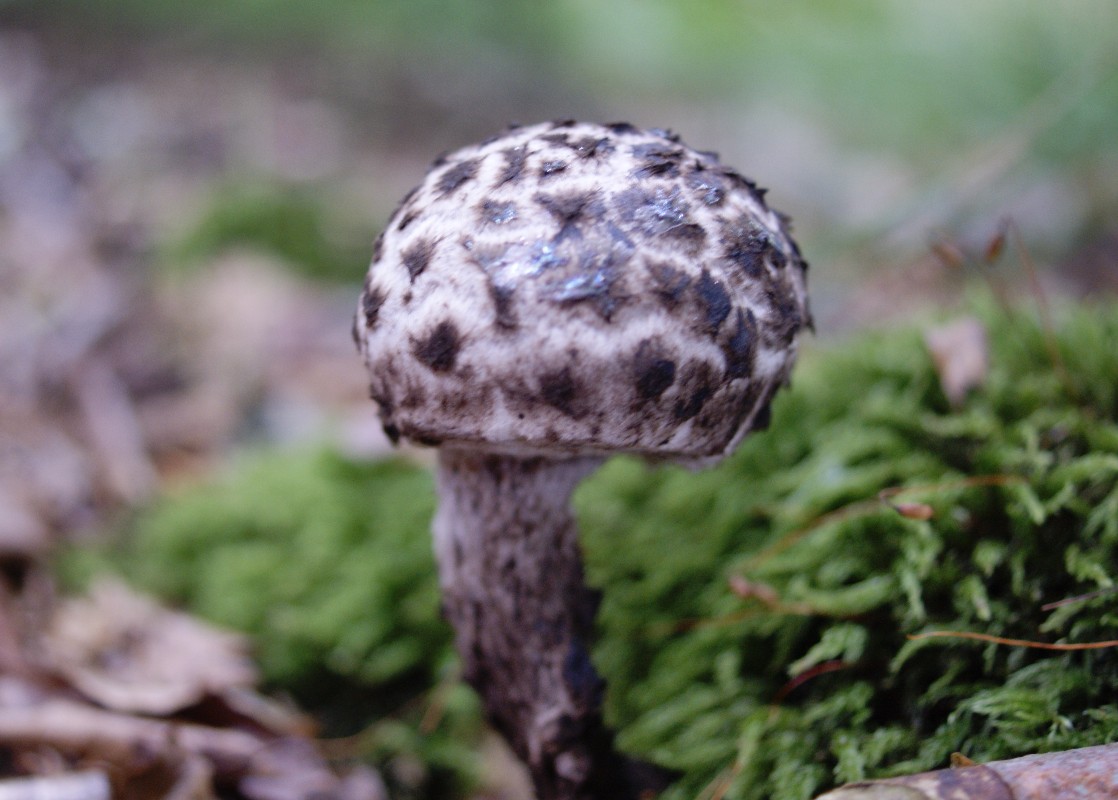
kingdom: Fungi
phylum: Basidiomycota
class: Agaricomycetes
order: Boletales
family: Boletaceae
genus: Strobilomyces
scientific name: Strobilomyces strobilaceus
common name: koglerørhat
